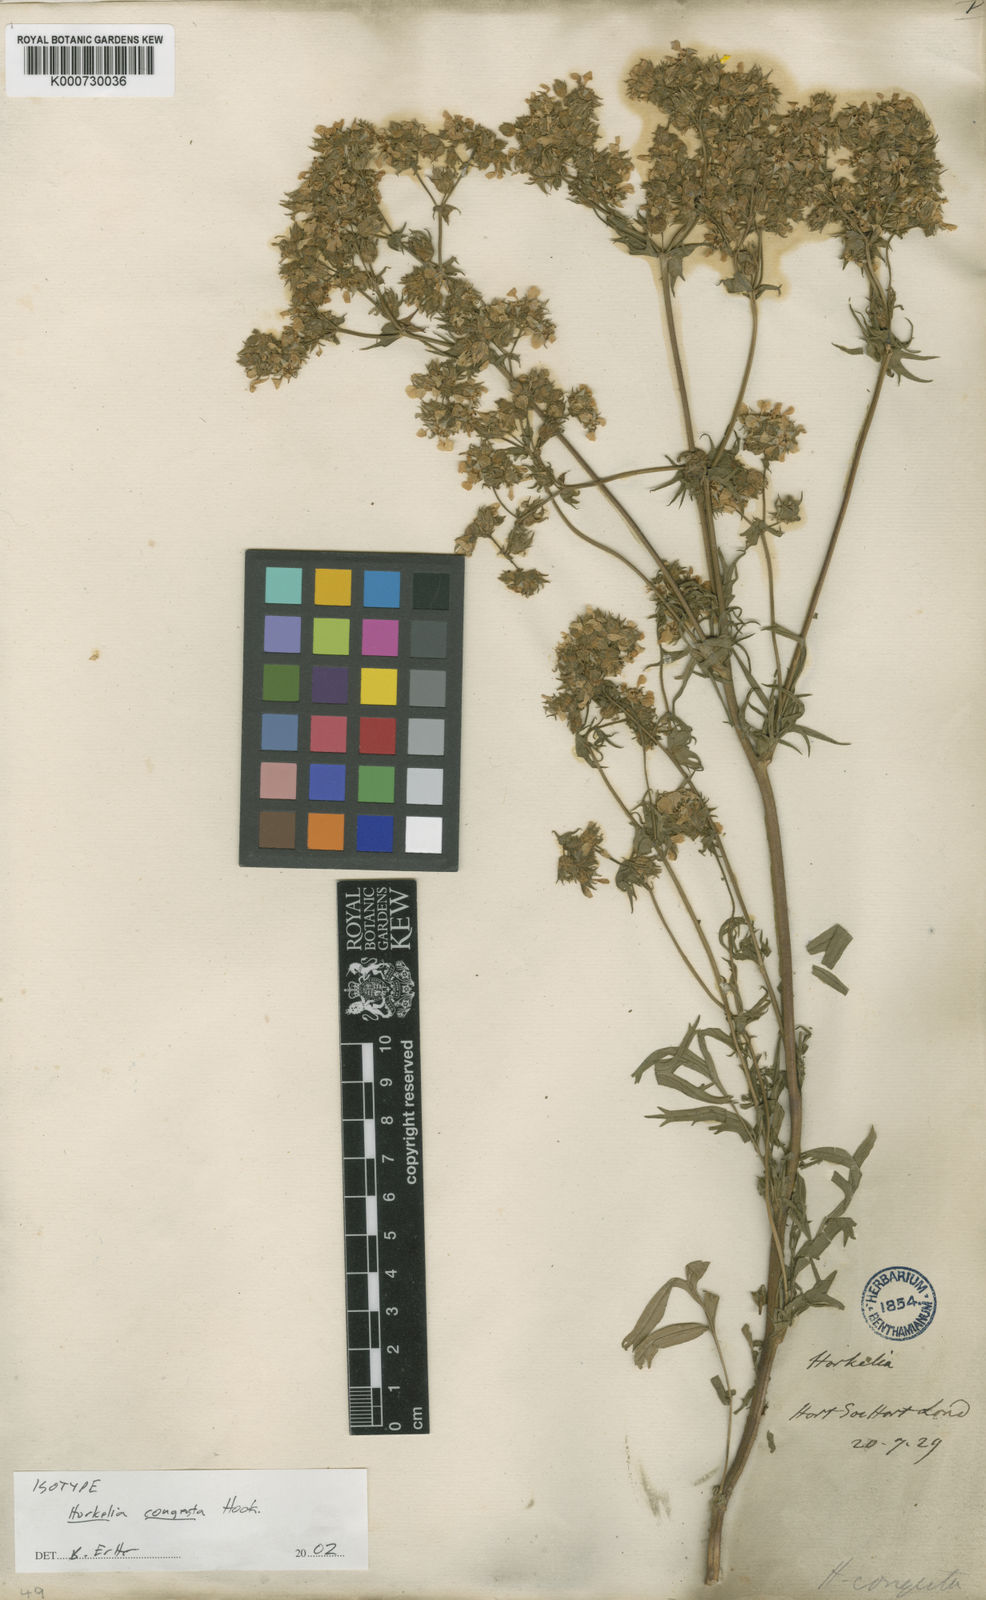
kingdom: Plantae
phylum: Tracheophyta
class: Magnoliopsida
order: Rosales
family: Rosaceae
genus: Potentilla
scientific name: Potentilla congesta
